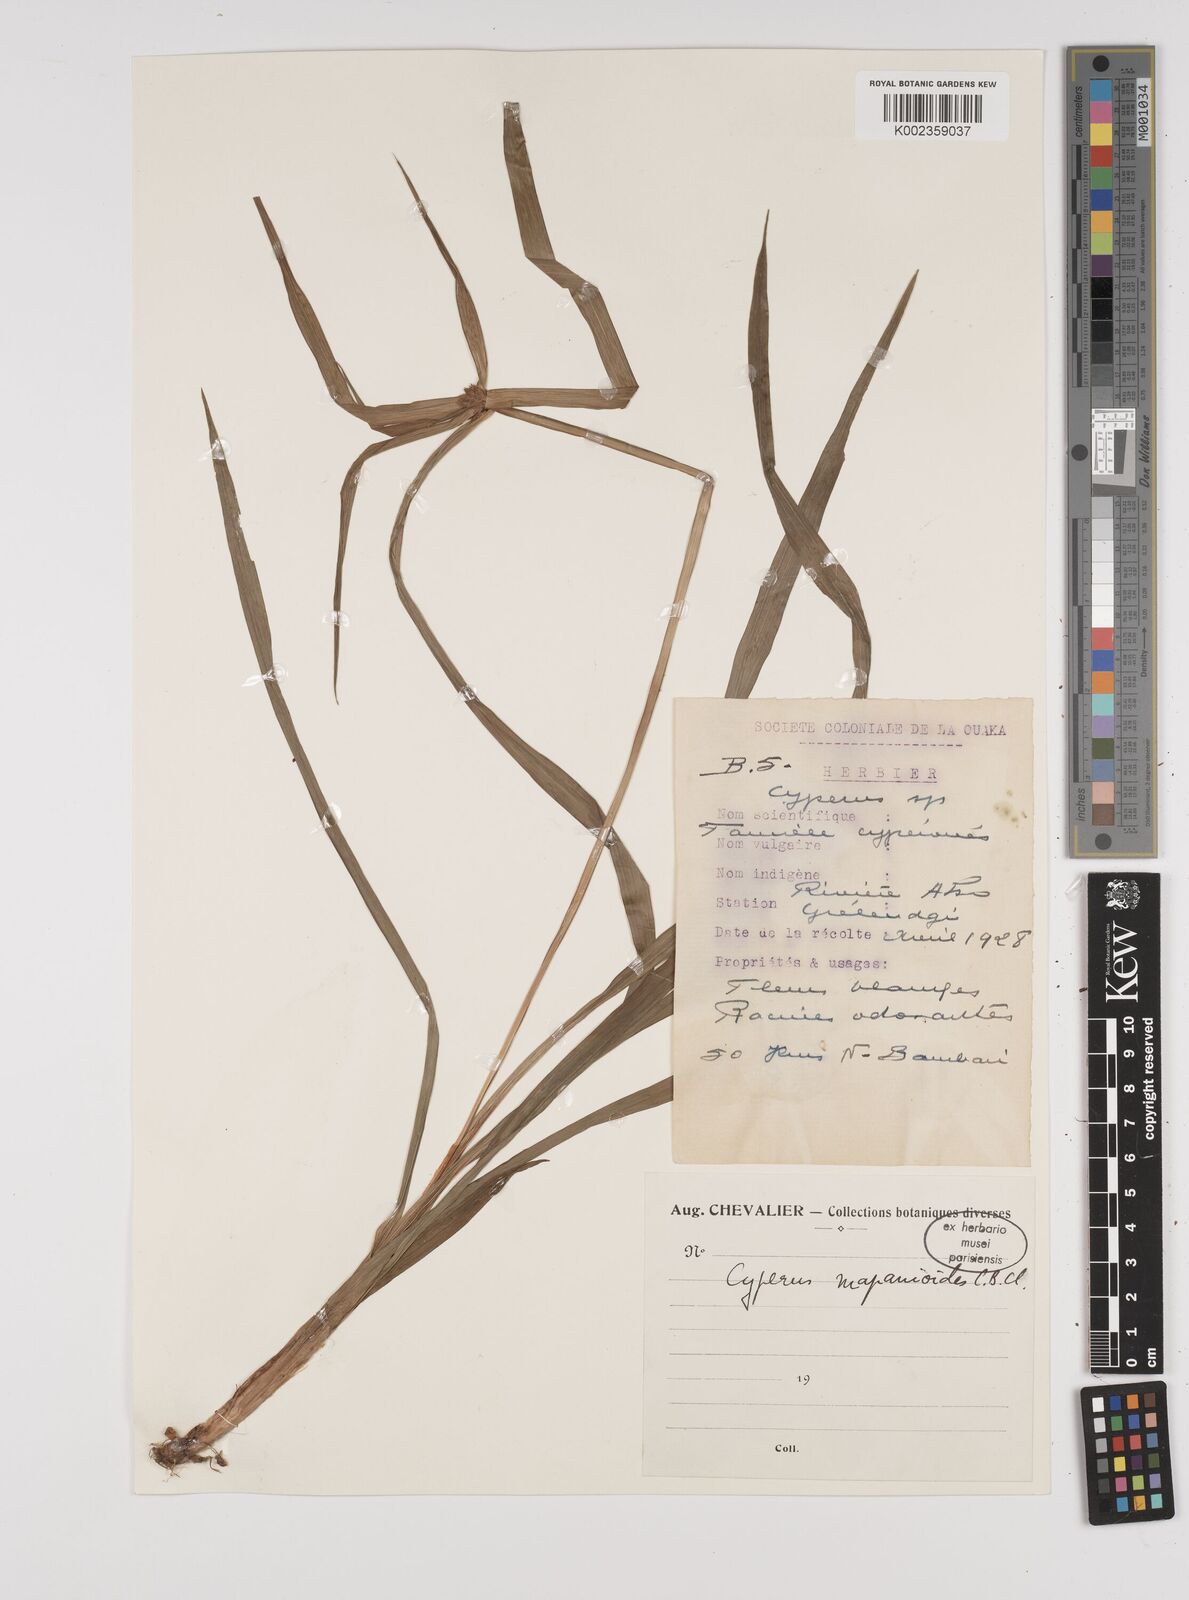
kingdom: Plantae
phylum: Tracheophyta
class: Liliopsida
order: Poales
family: Cyperaceae
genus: Cyperus
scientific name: Cyperus mapanioides
